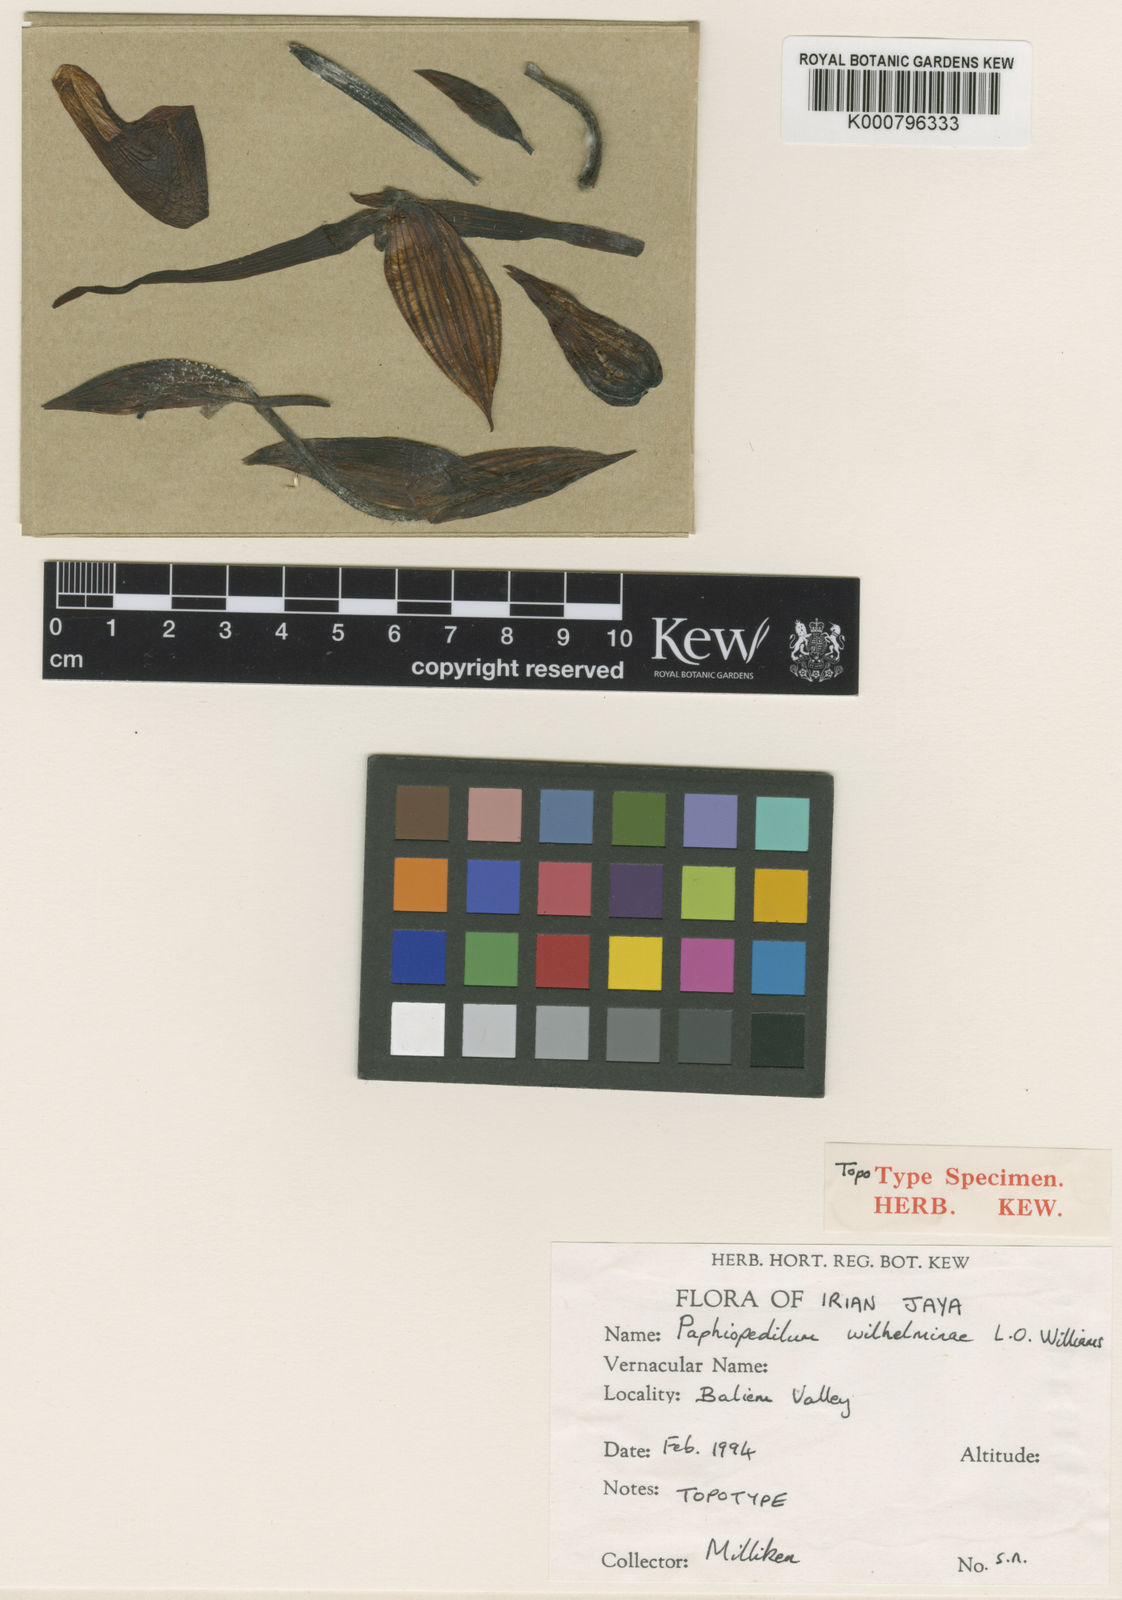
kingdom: Plantae
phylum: Tracheophyta
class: Liliopsida
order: Asparagales
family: Orchidaceae
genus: Paphiopedilum
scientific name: Paphiopedilum glanduliferum
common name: Gland-bearing paphiopedilum
